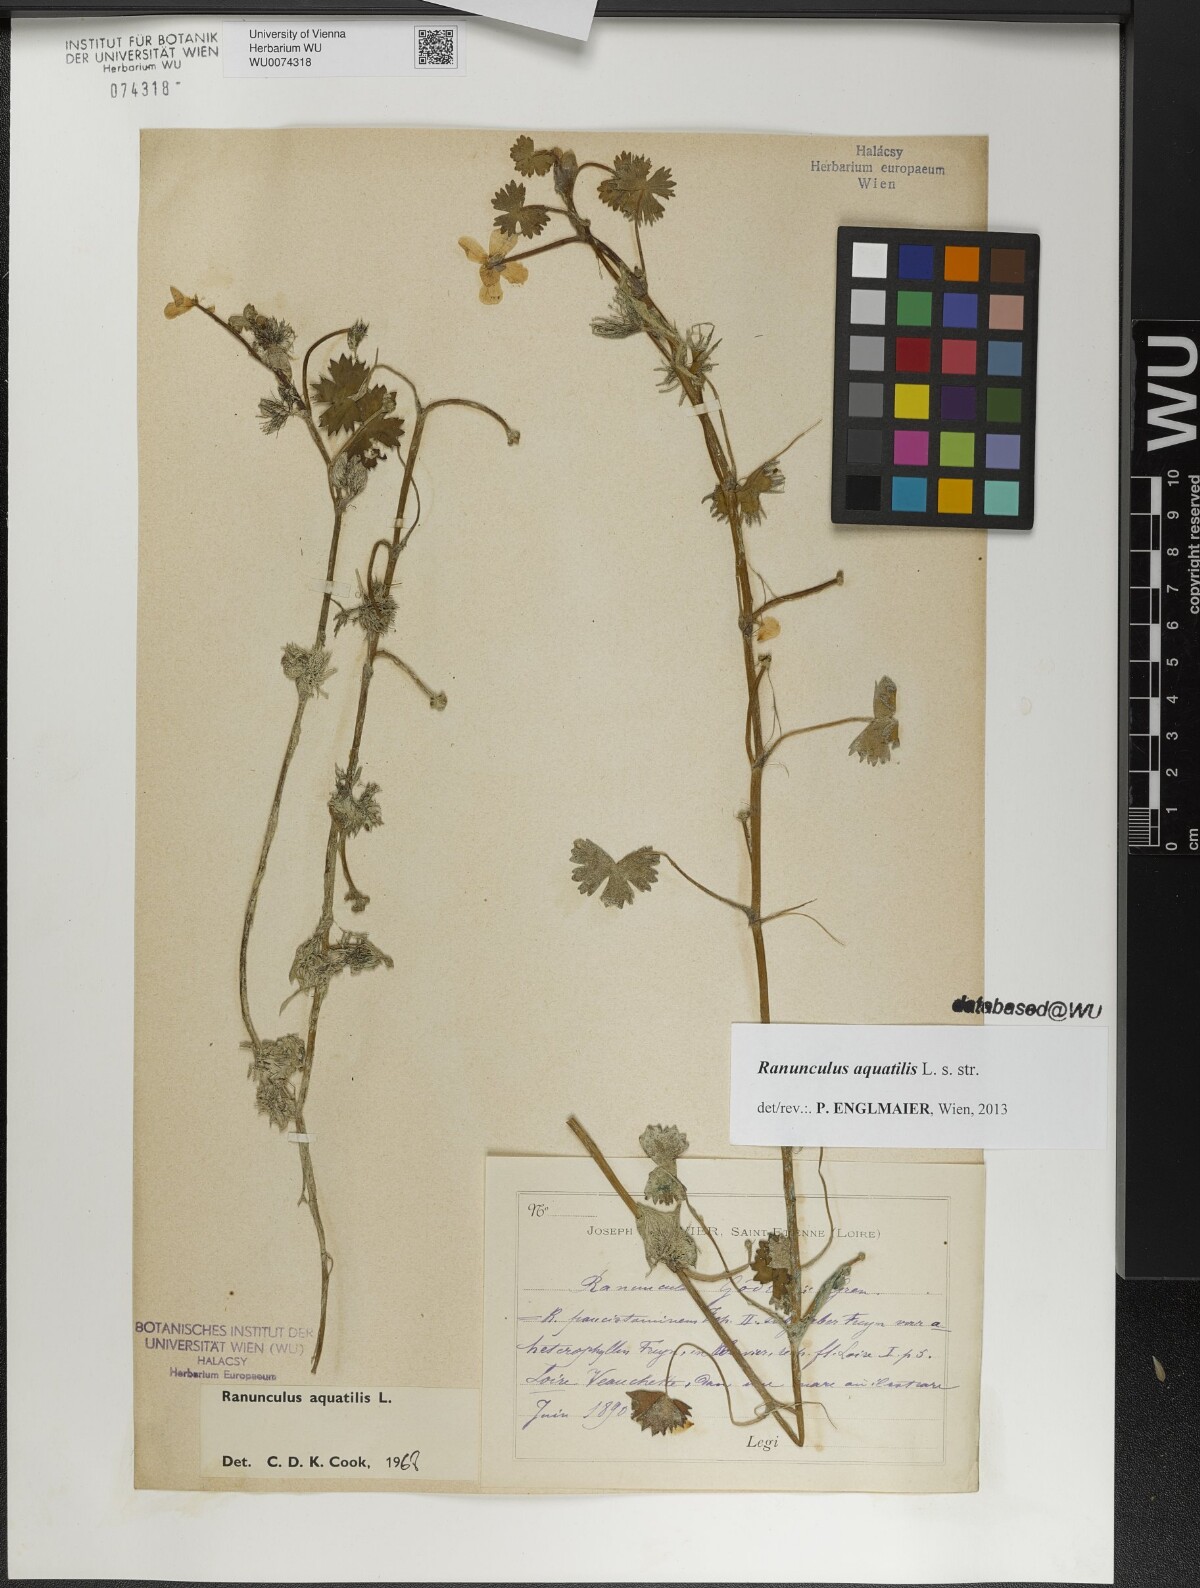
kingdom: Plantae
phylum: Tracheophyta
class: Magnoliopsida
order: Ranunculales
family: Ranunculaceae
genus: Ranunculus
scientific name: Ranunculus aquatilis
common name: Common water-crowfoot
